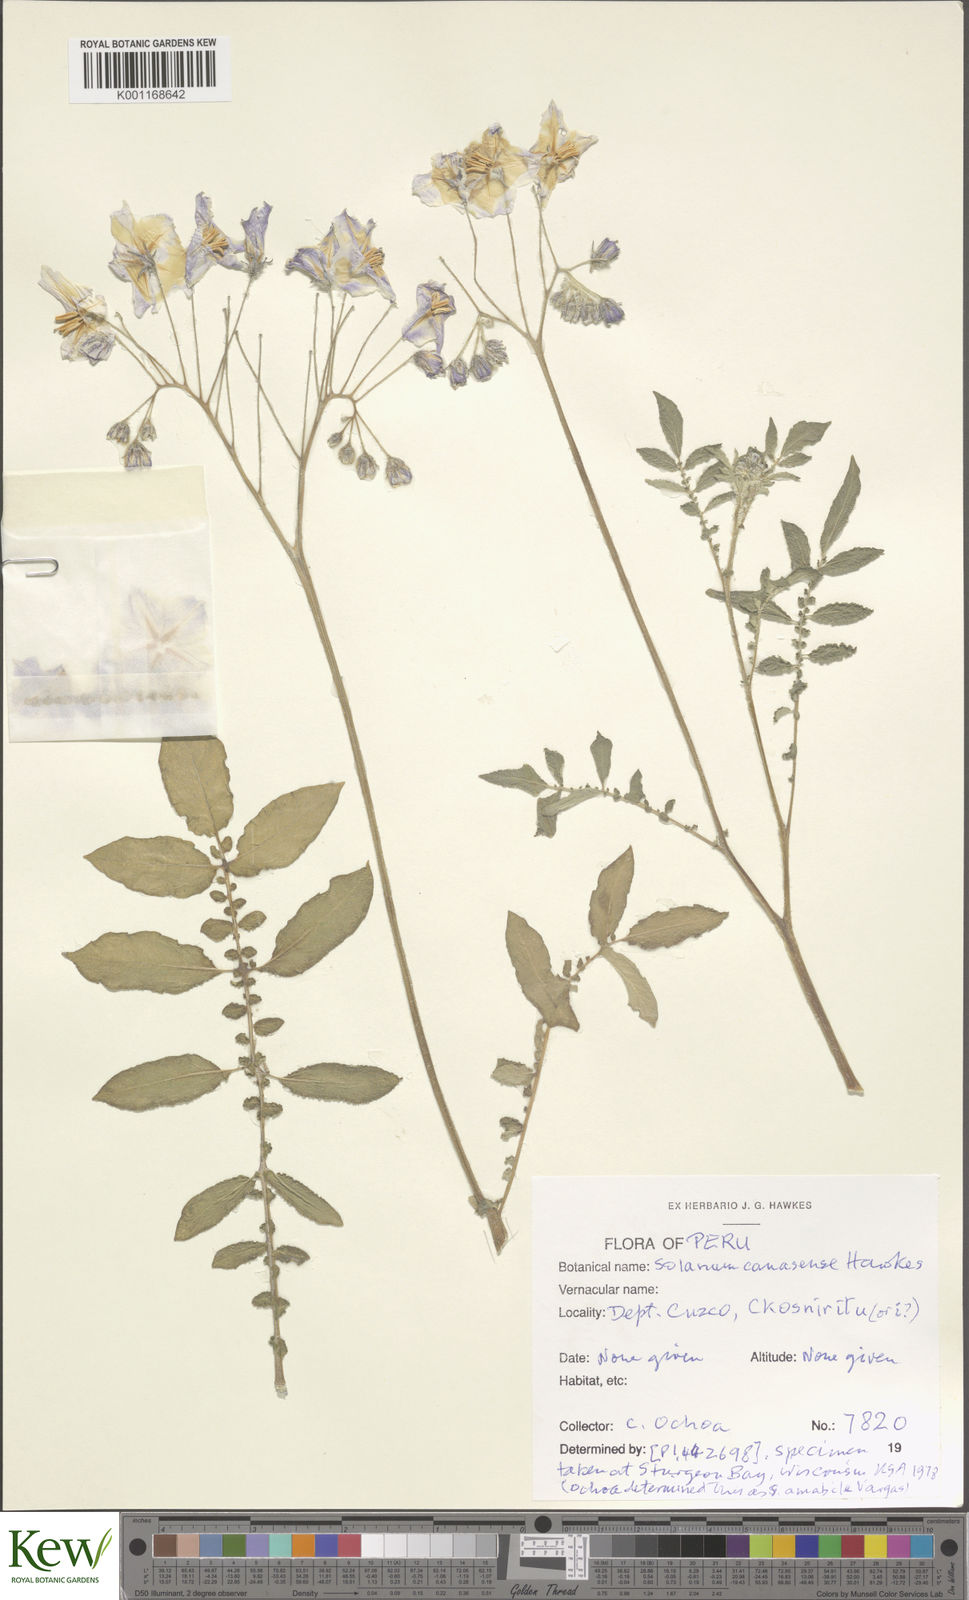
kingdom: Plantae
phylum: Tracheophyta
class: Magnoliopsida
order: Solanales
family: Solanaceae
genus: Solanum
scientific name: Solanum candolleanum
